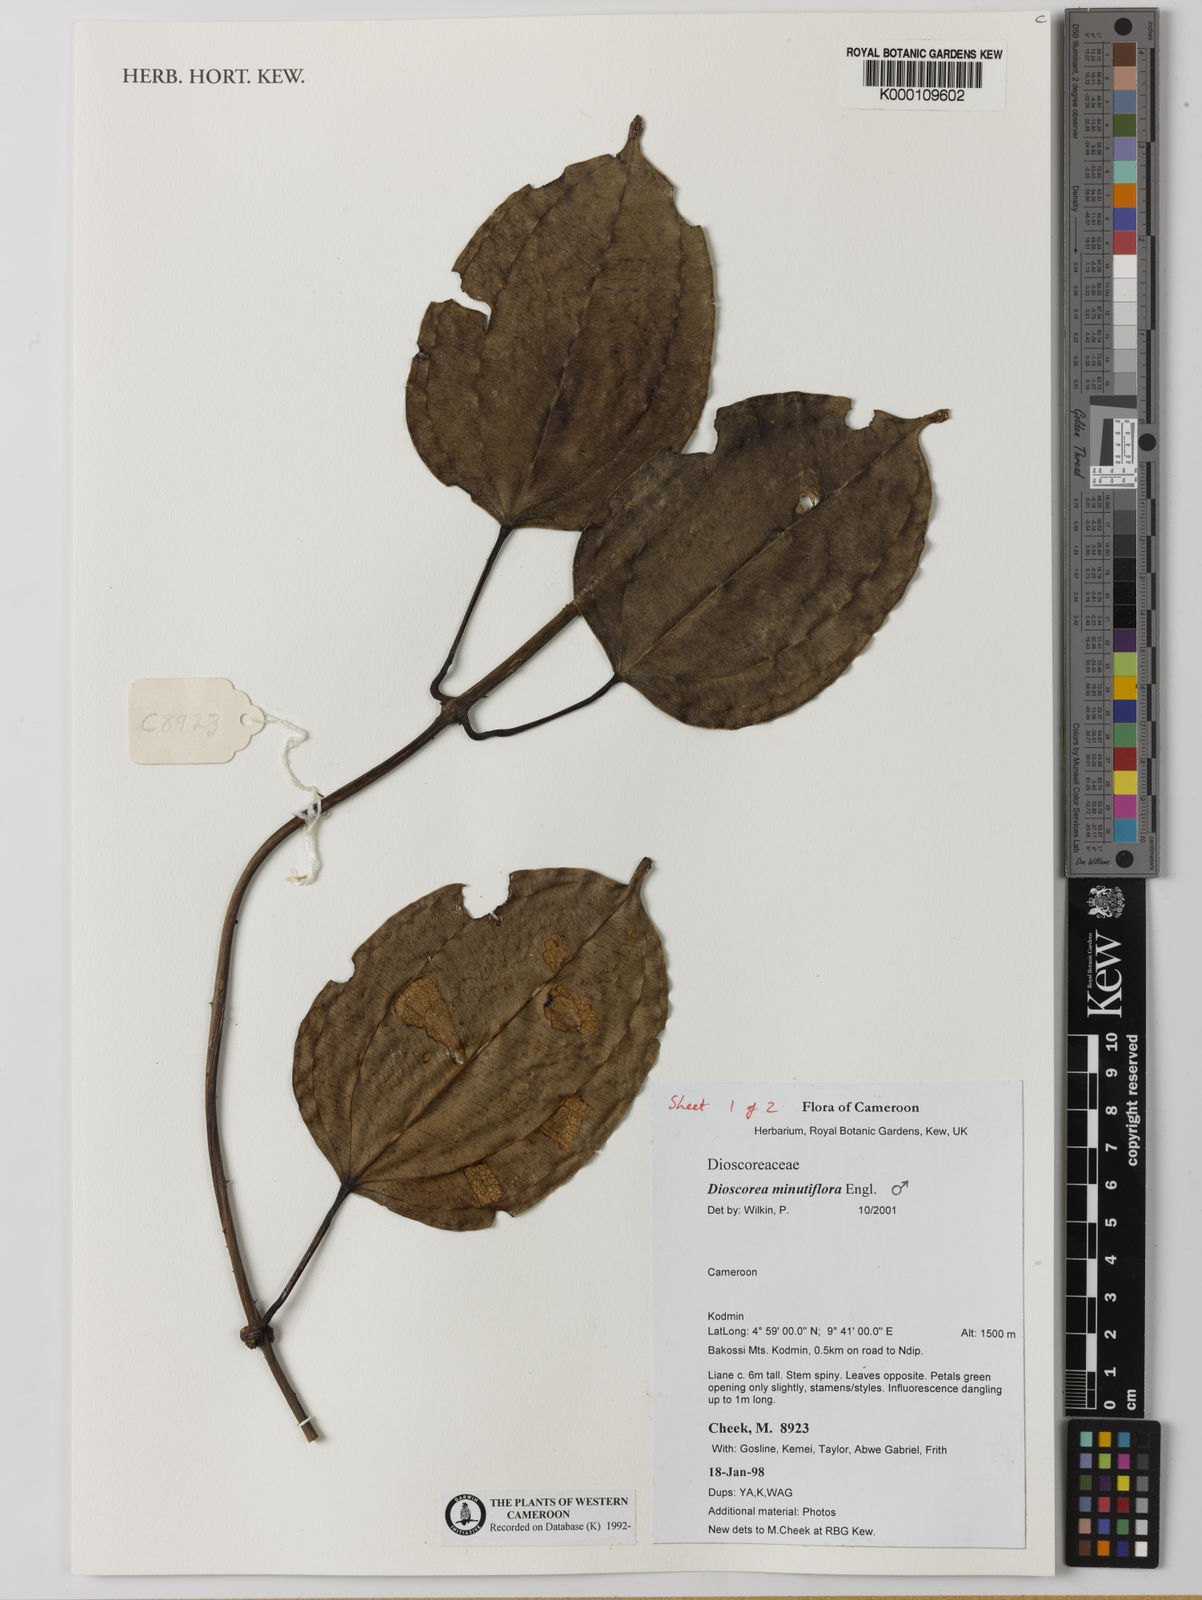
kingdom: Plantae
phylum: Tracheophyta
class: Liliopsida
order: Dioscoreales
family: Dioscoreaceae
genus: Dioscorea
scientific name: Dioscorea minutiflora
